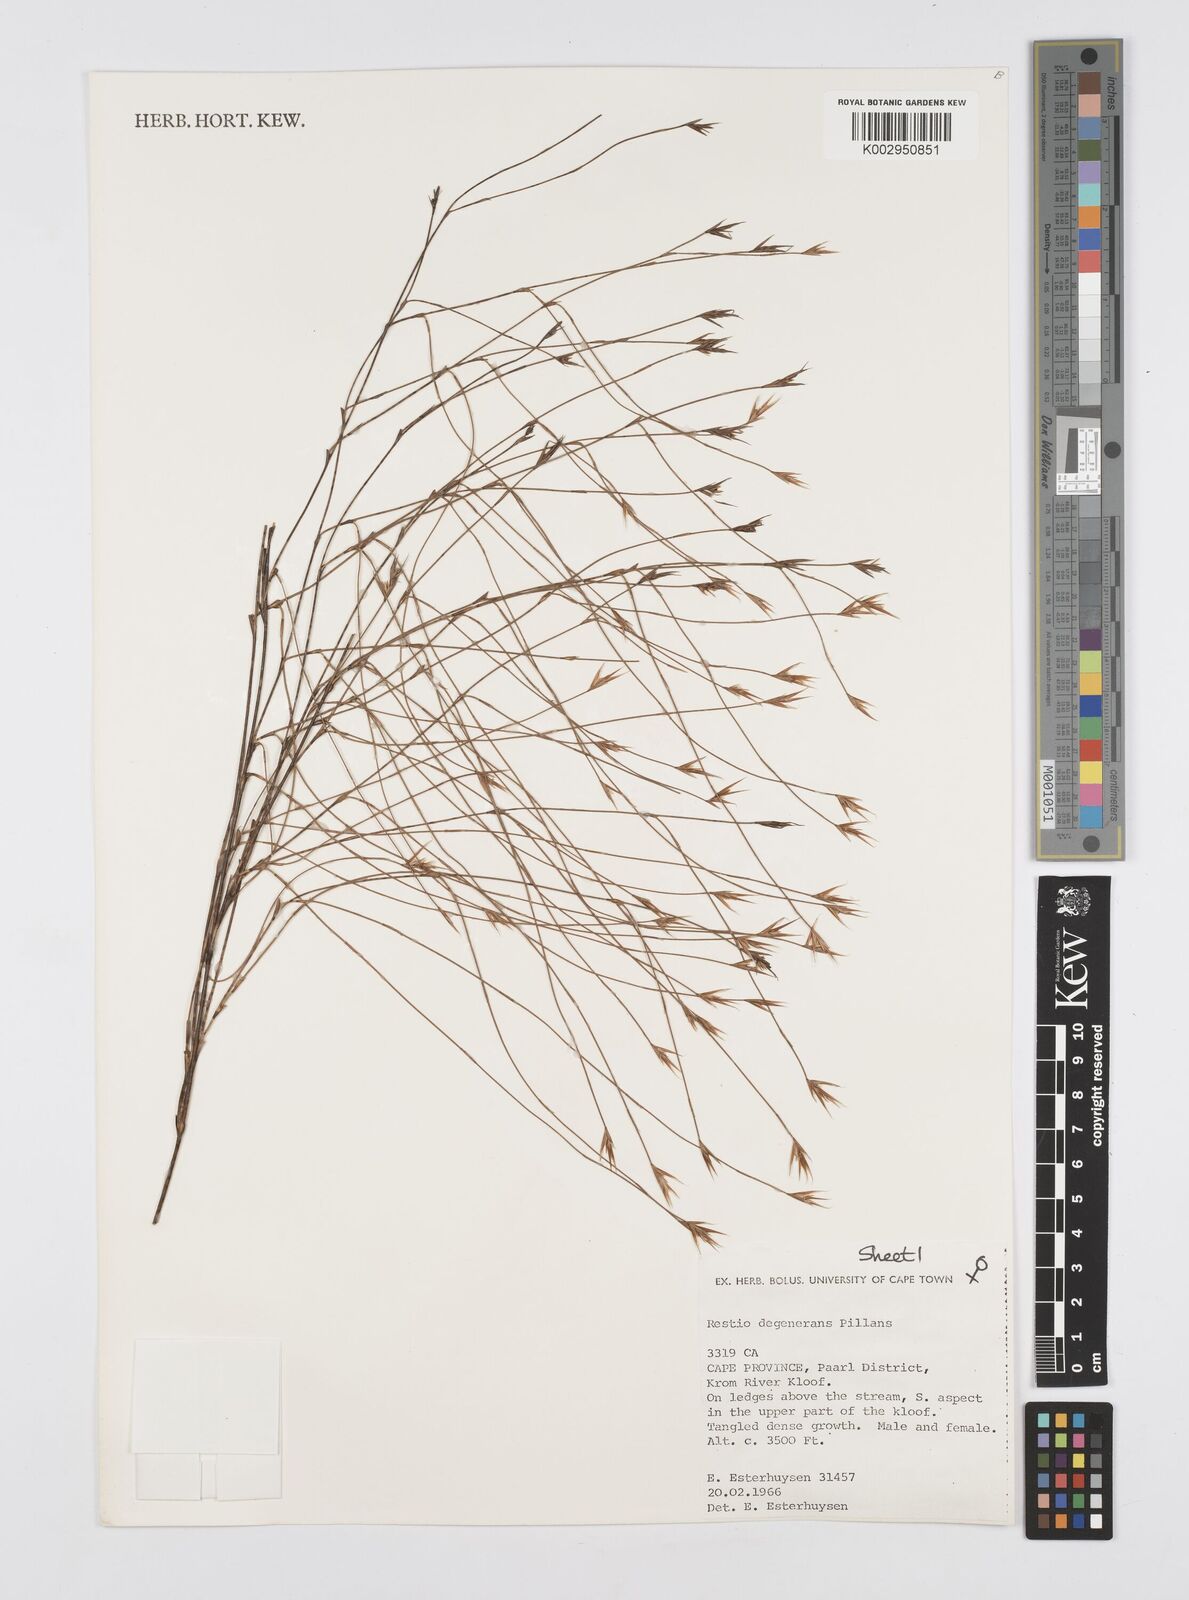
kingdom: Plantae
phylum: Tracheophyta
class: Liliopsida
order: Poales
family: Restionaceae
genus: Restio
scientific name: Restio degenerans
